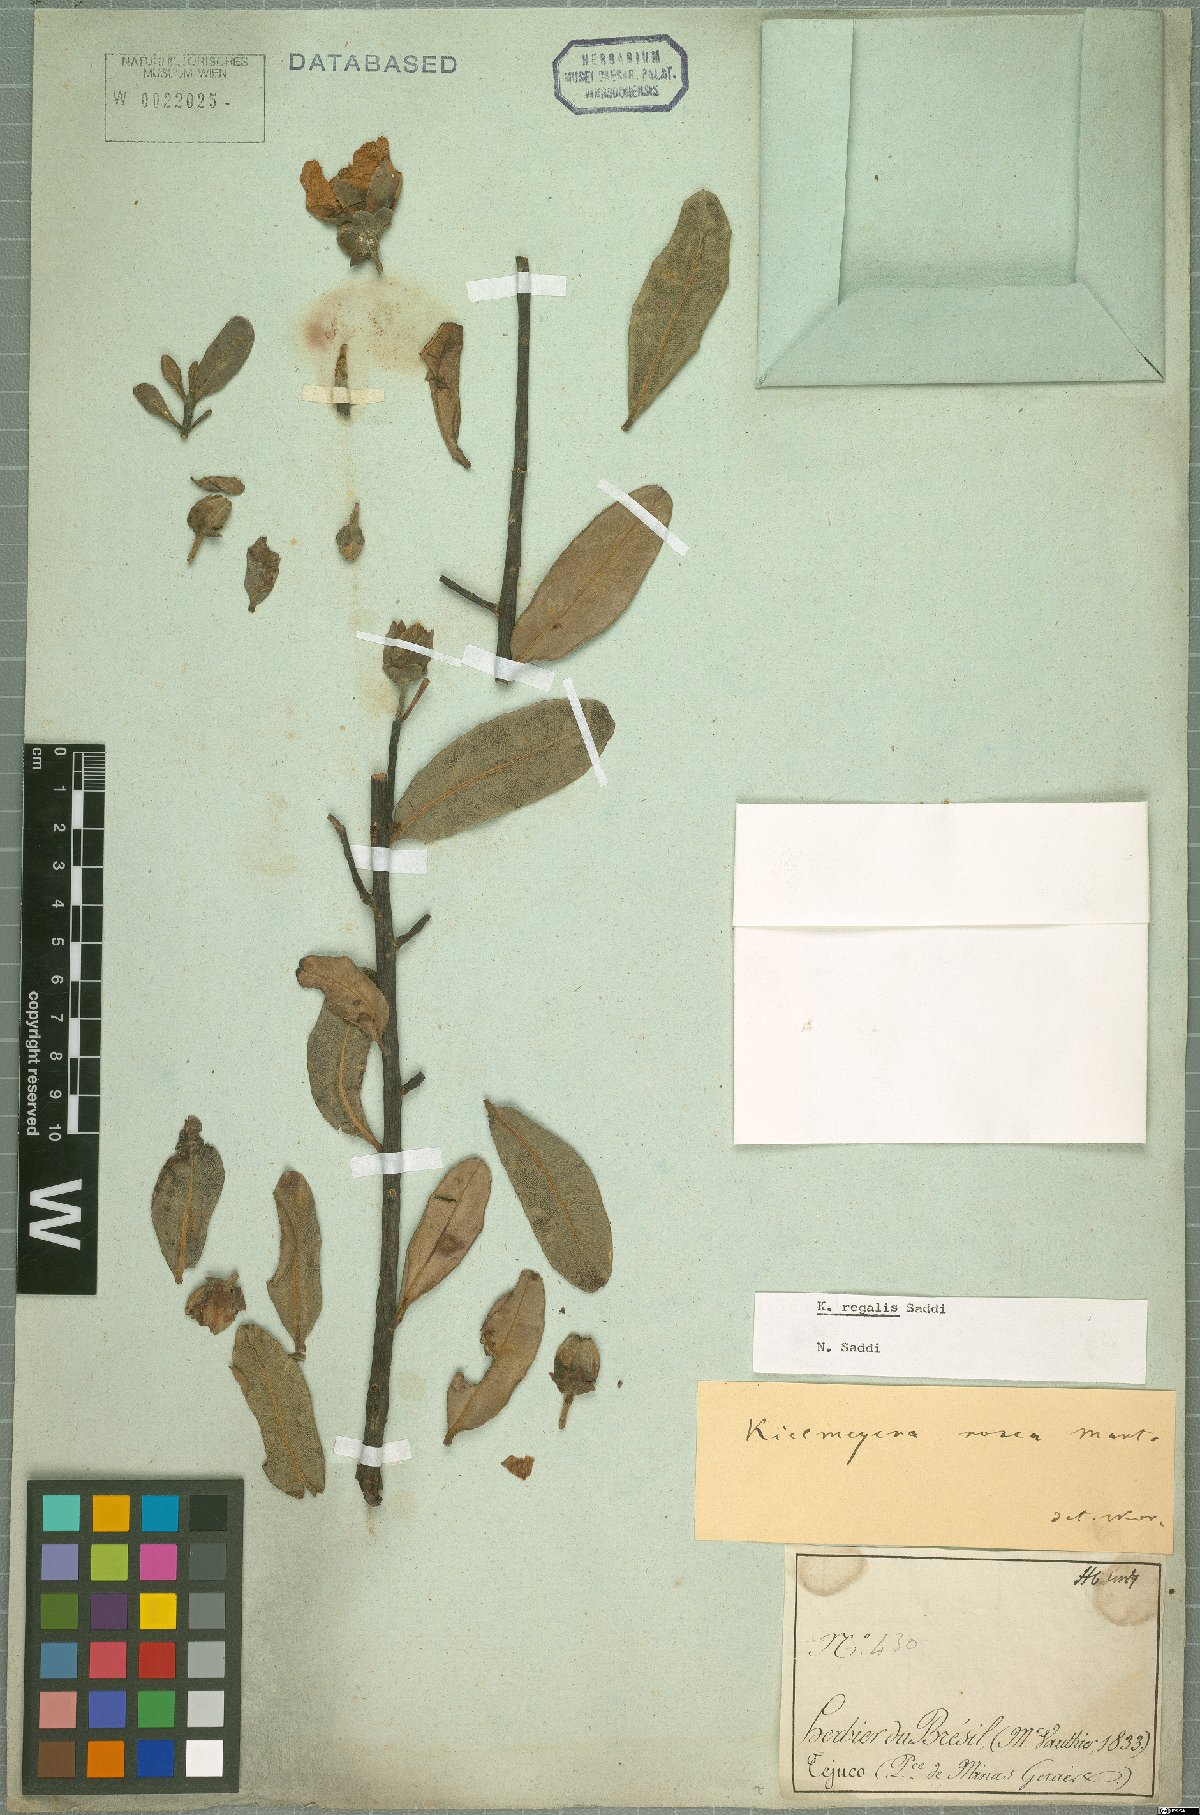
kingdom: Plantae
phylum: Tracheophyta
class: Magnoliopsida
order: Malpighiales
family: Calophyllaceae
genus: Kielmeyera
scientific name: Kielmeyera regalis
